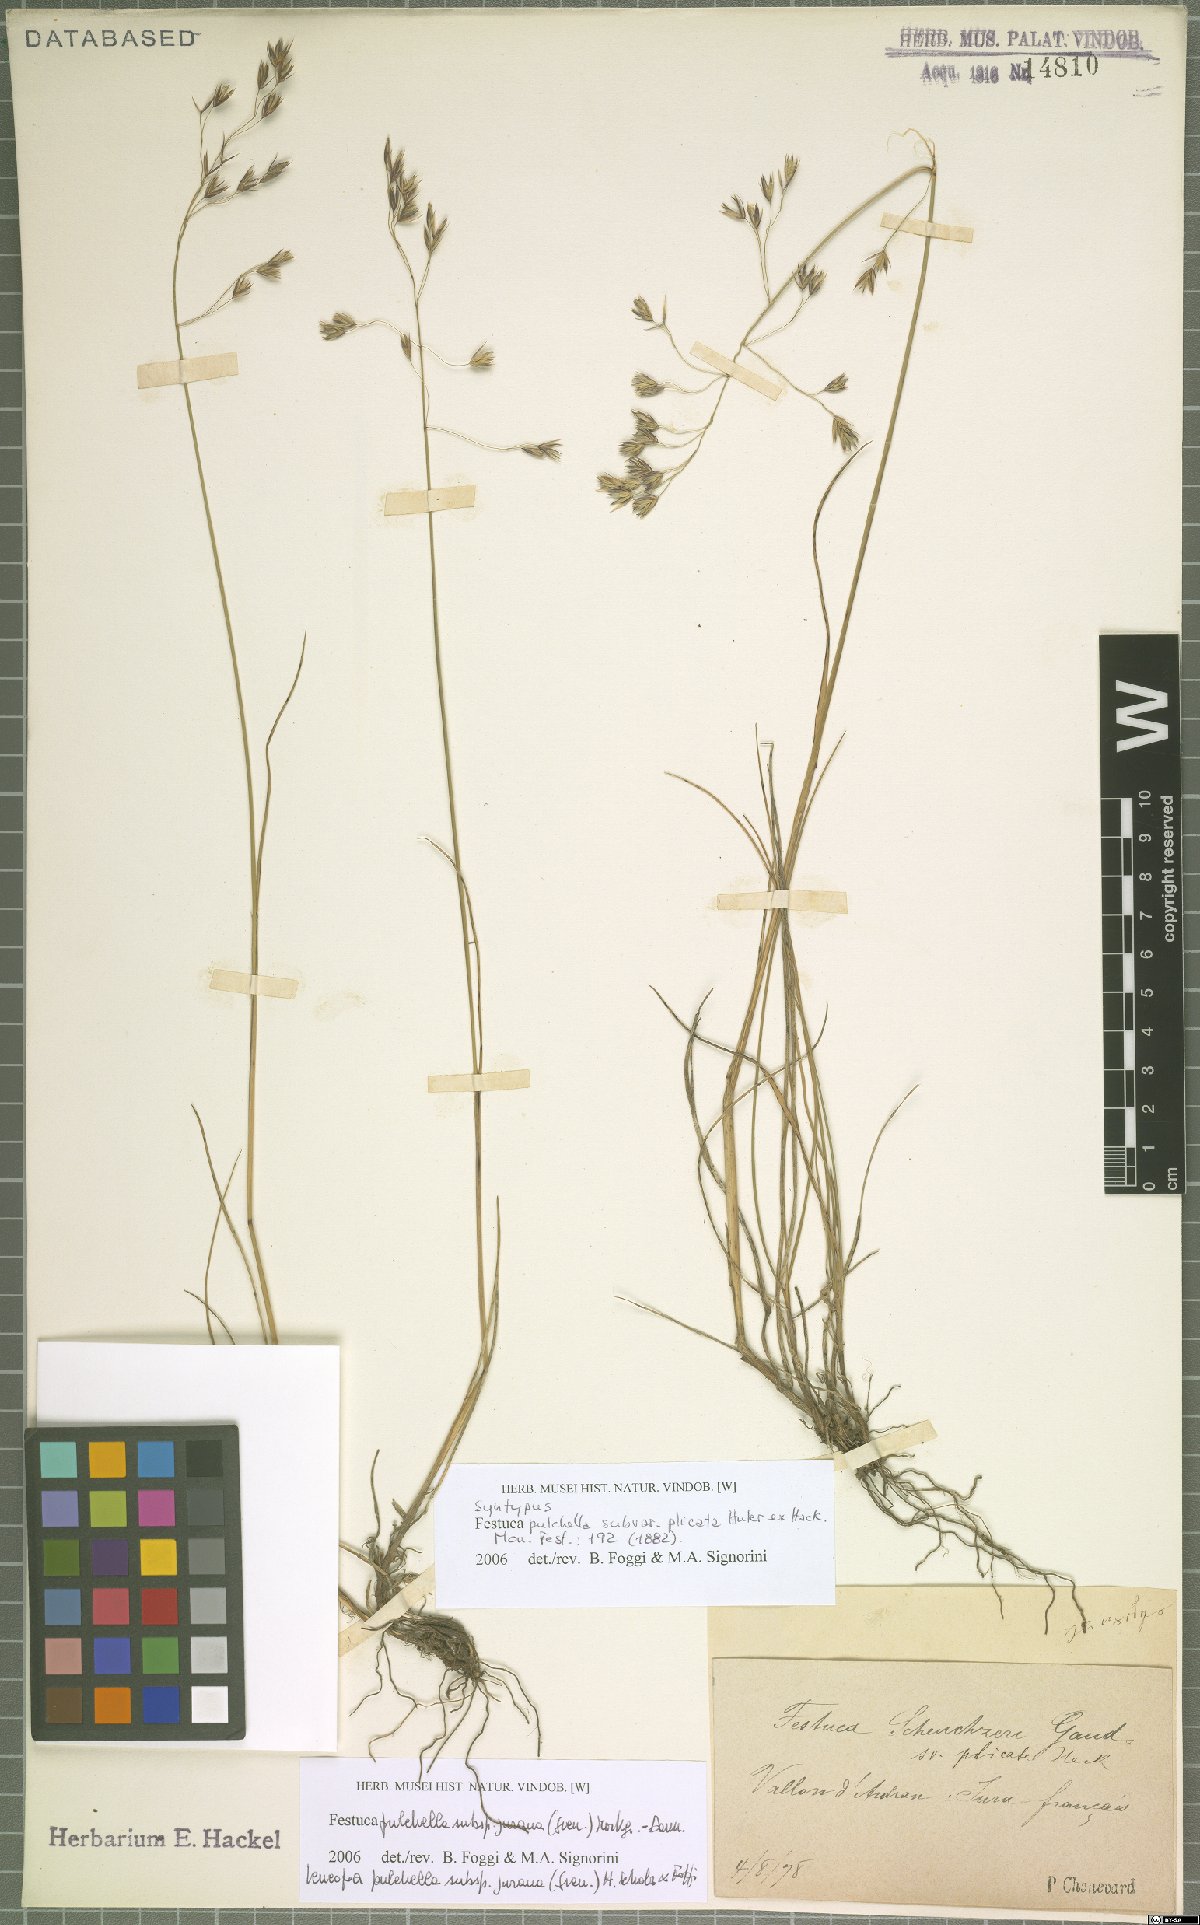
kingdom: Plantae
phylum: Tracheophyta
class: Liliopsida
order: Poales
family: Poaceae
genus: Festuca
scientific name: Festuca pulchella
